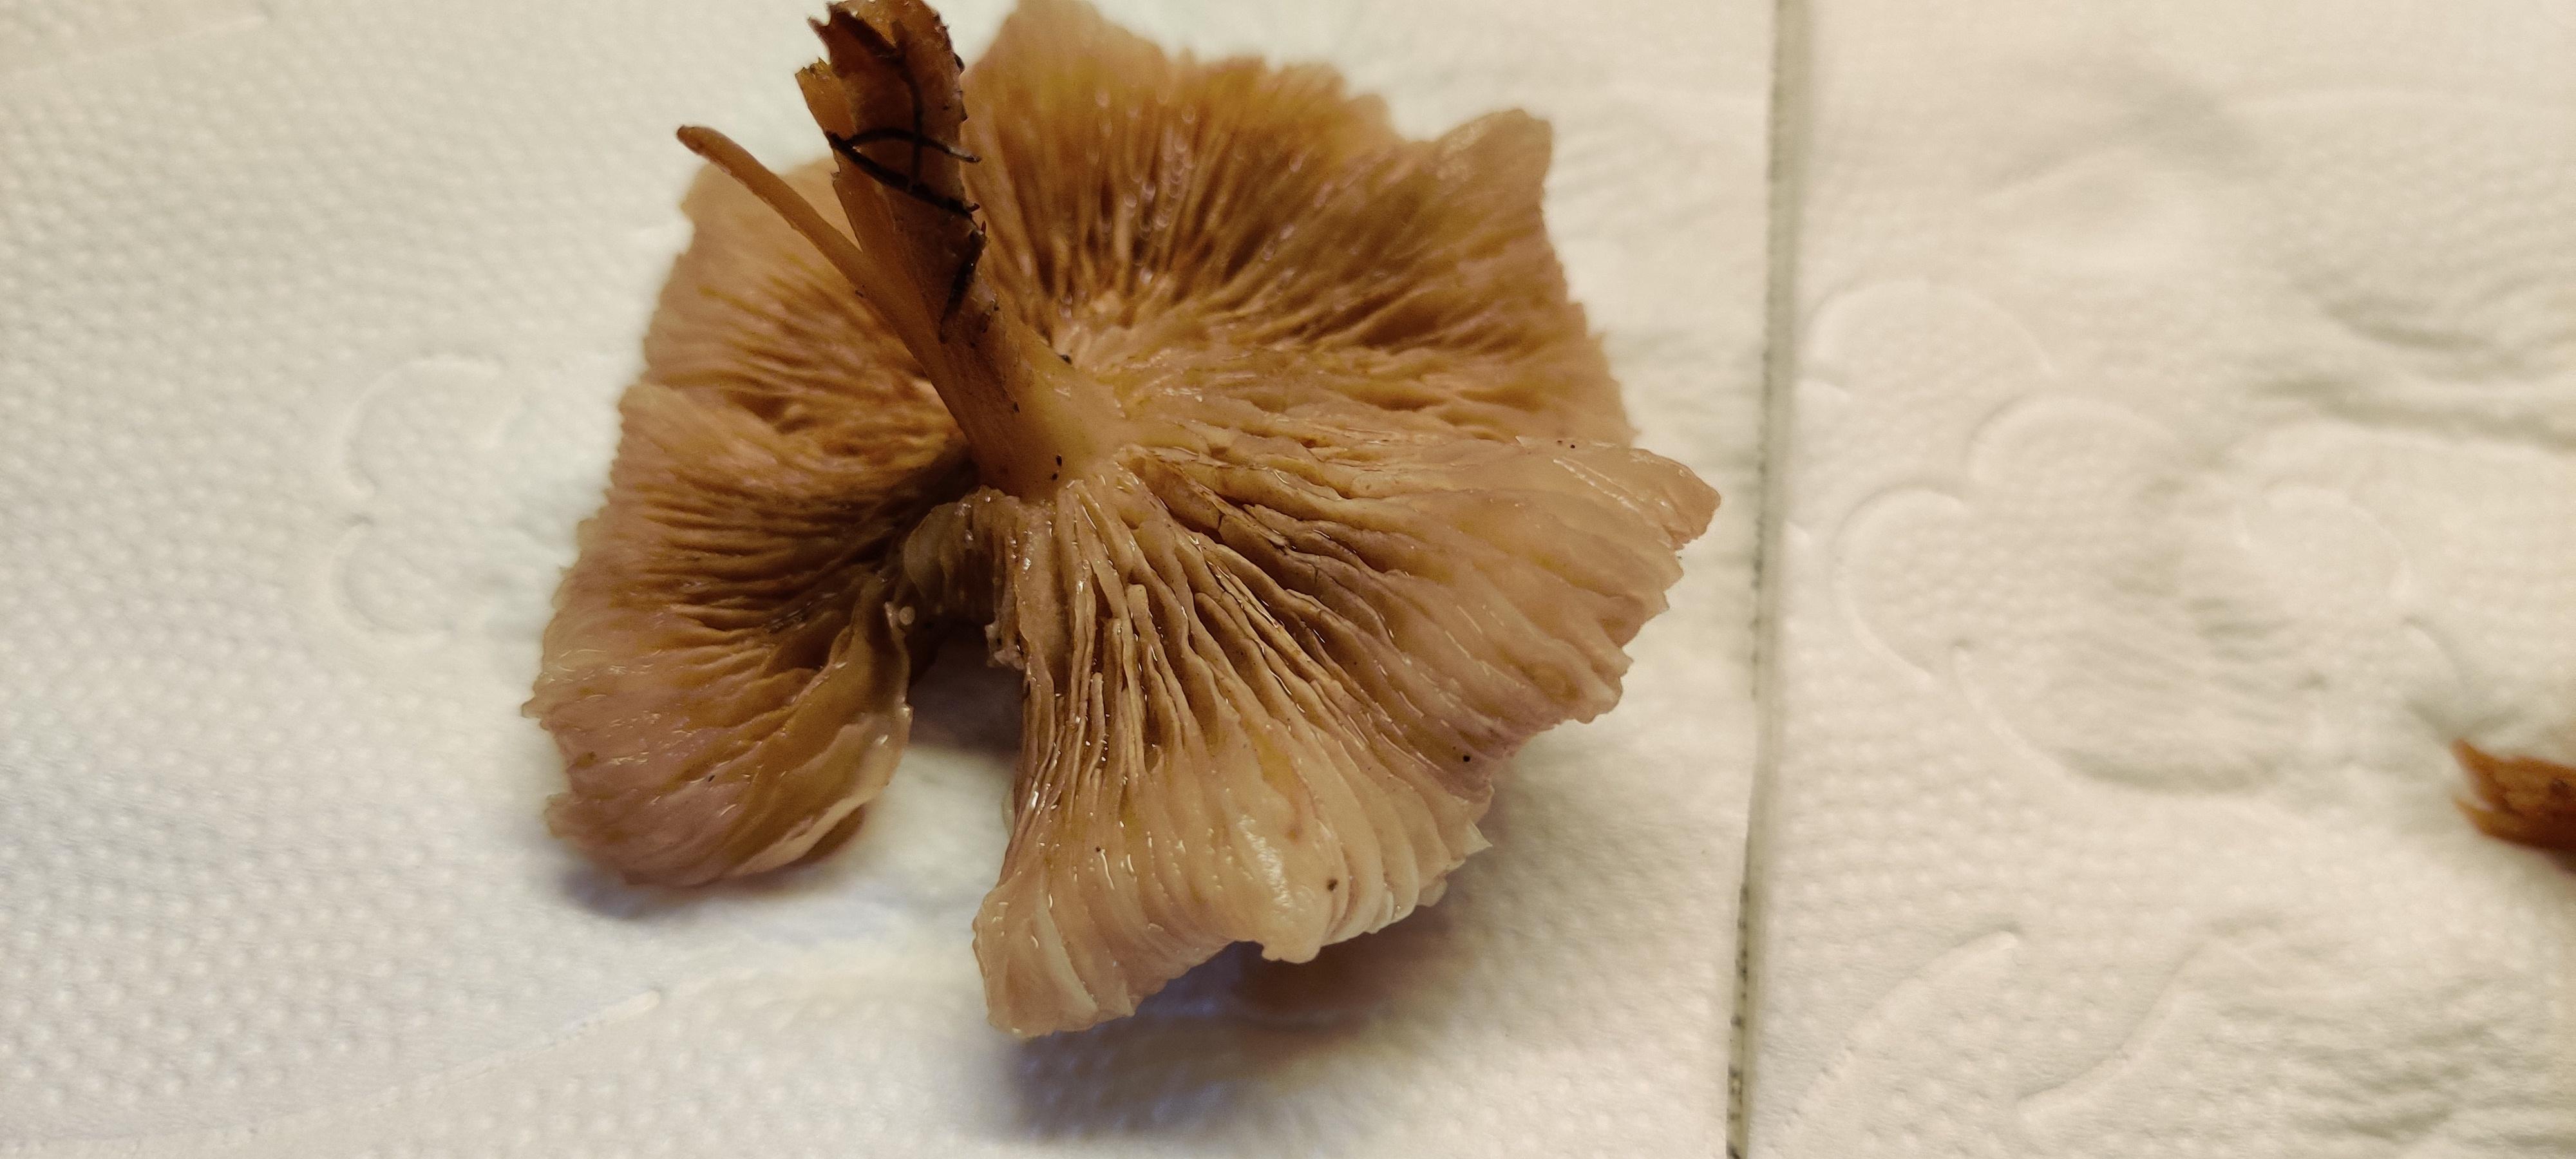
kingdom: Fungi
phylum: Basidiomycota
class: Agaricomycetes
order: Agaricales
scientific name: Agaricales
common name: champignonordenen
